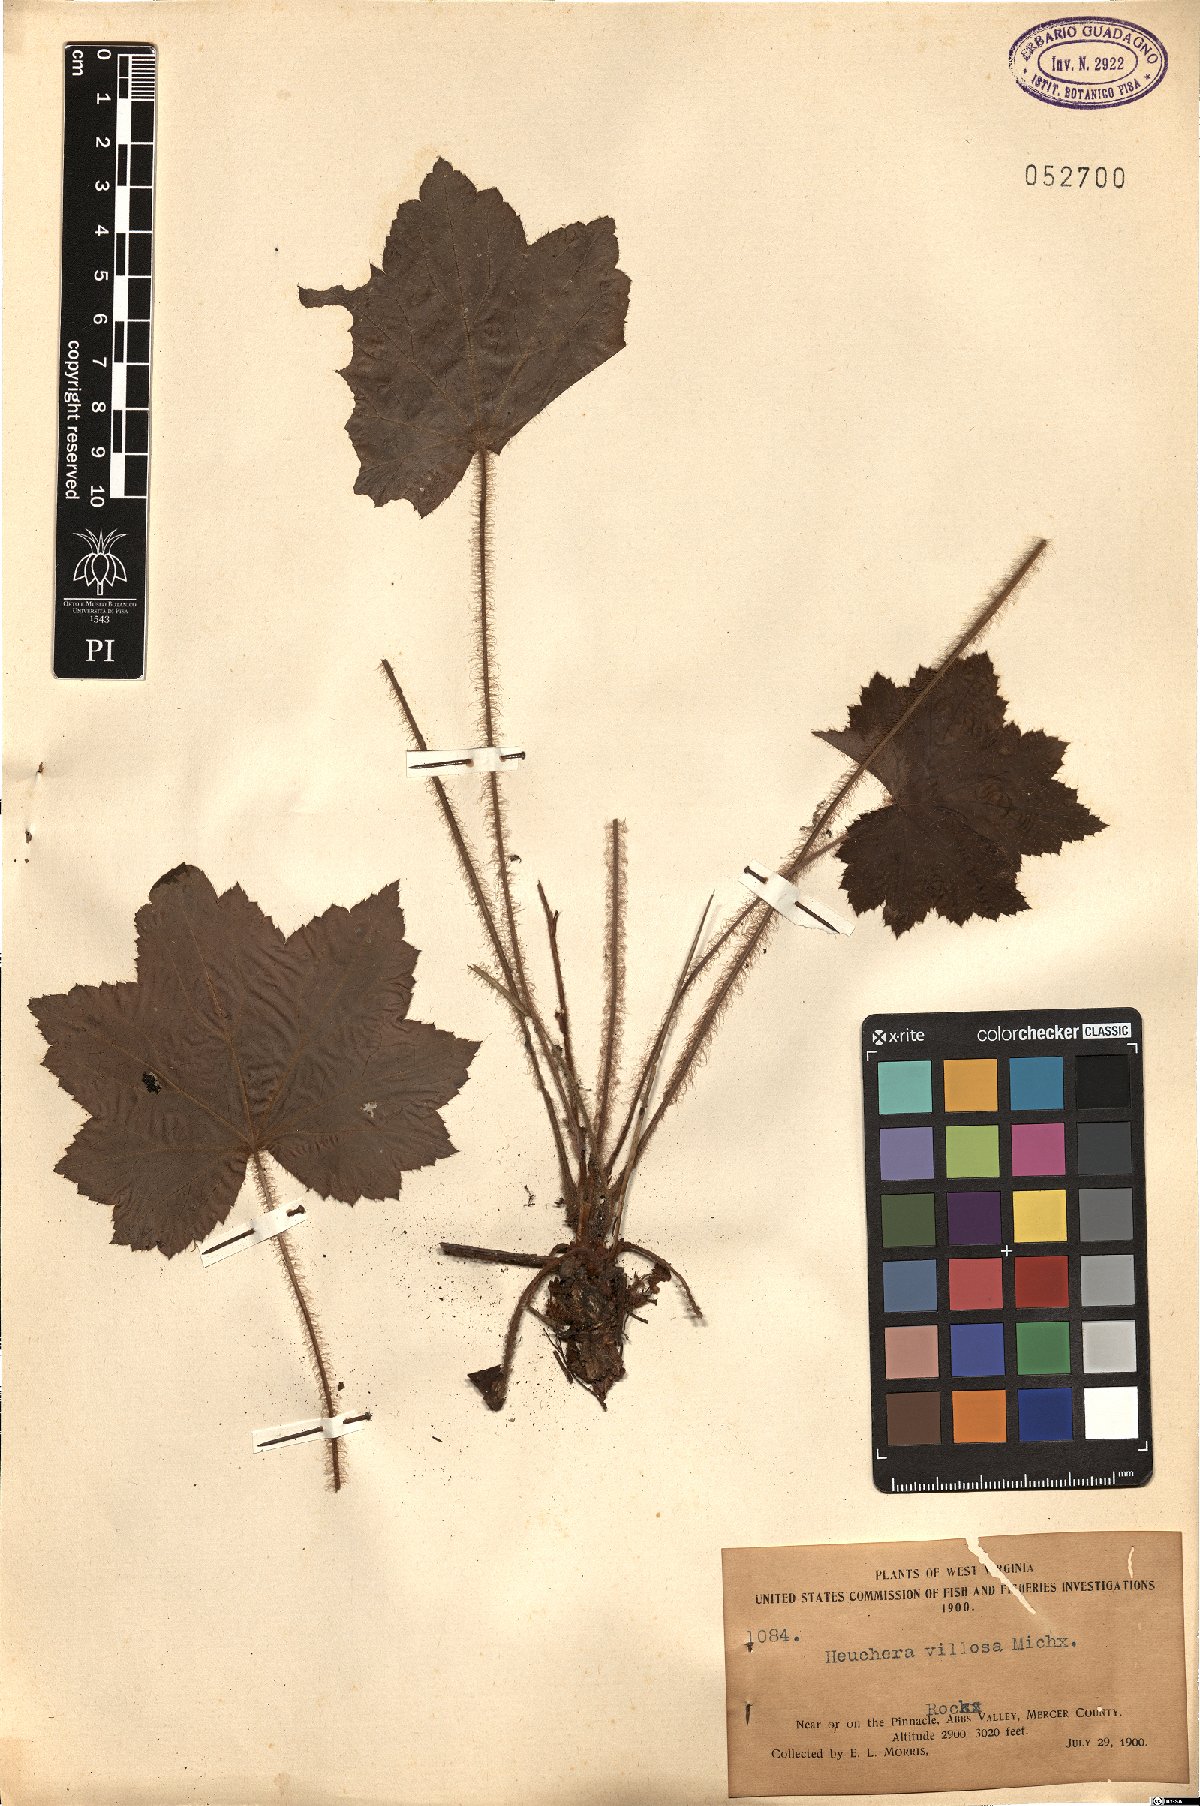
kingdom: Plantae
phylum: Tracheophyta
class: Magnoliopsida
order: Saxifragales
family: Saxifragaceae
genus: Heuchera
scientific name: Heuchera villosa
